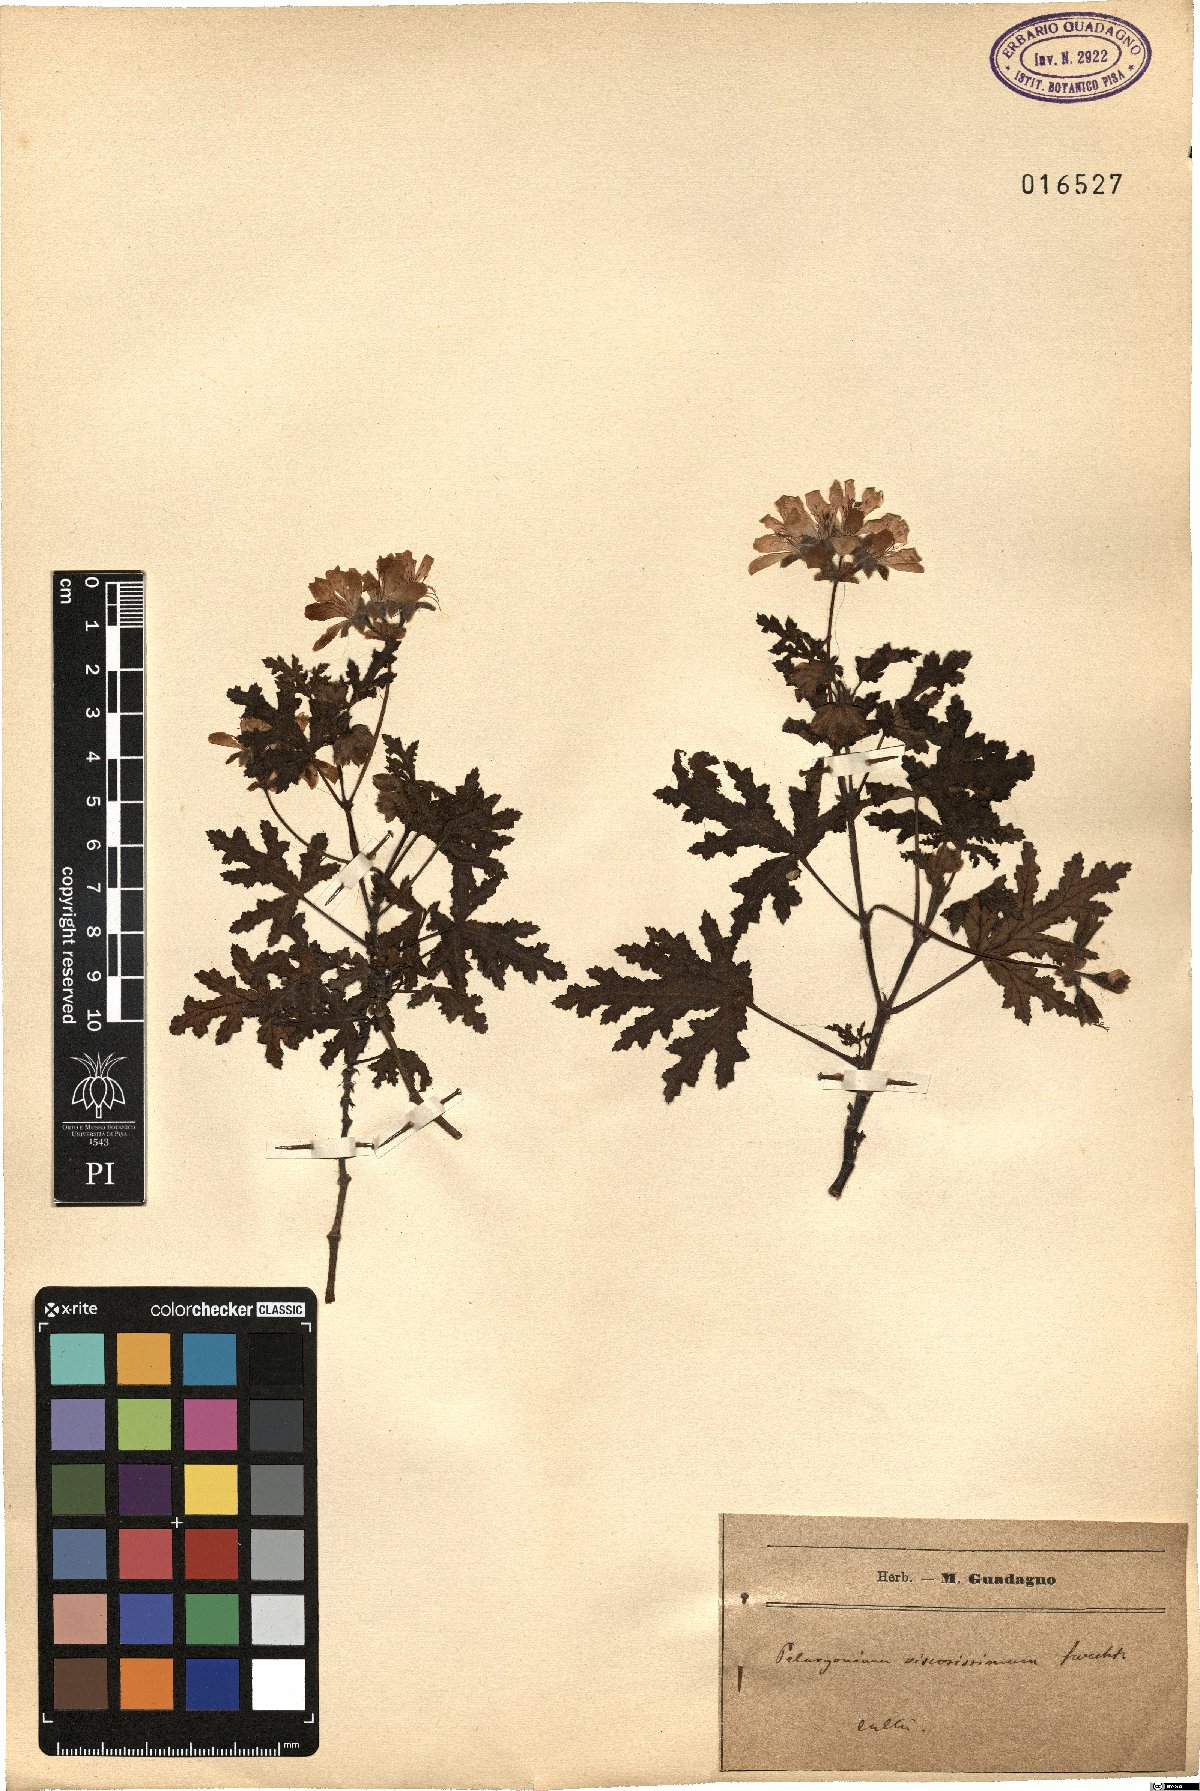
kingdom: Plantae
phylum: Tracheophyta
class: Magnoliopsida
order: Geraniales
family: Geraniaceae
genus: Pelargonium
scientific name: Pelargonium glutinosum
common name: Pheasant-foot geranium
